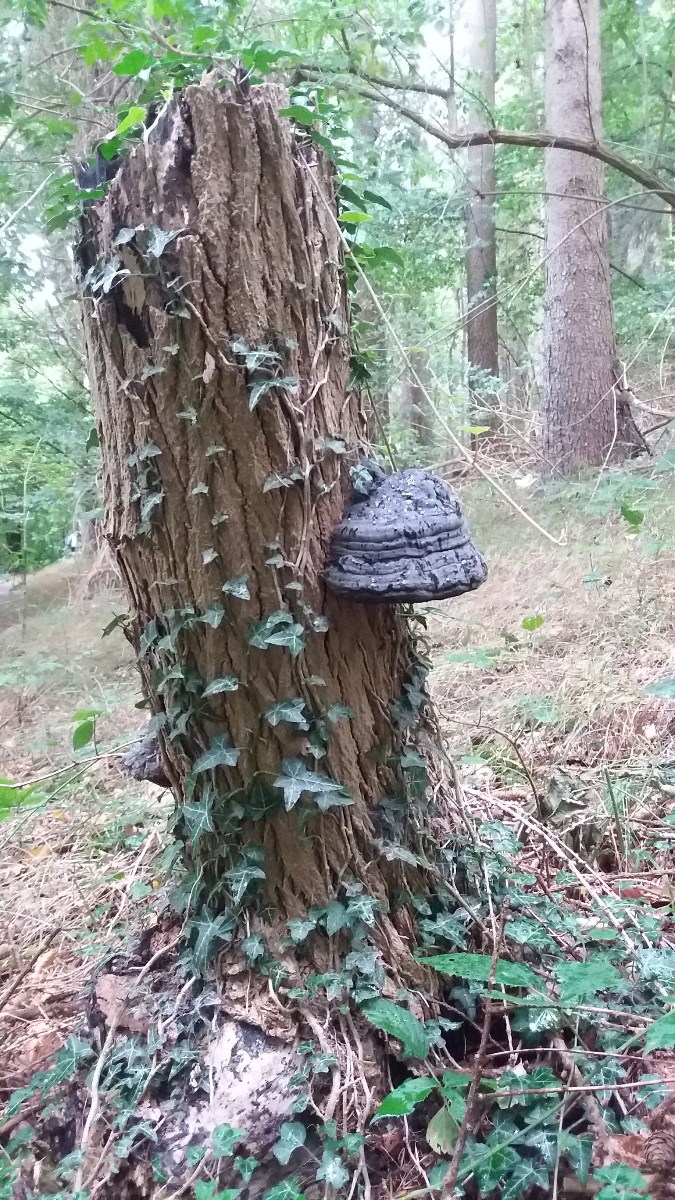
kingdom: Fungi
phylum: Basidiomycota
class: Agaricomycetes
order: Polyporales
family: Polyporaceae
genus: Fomes
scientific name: Fomes fomentarius
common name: tøndersvamp
